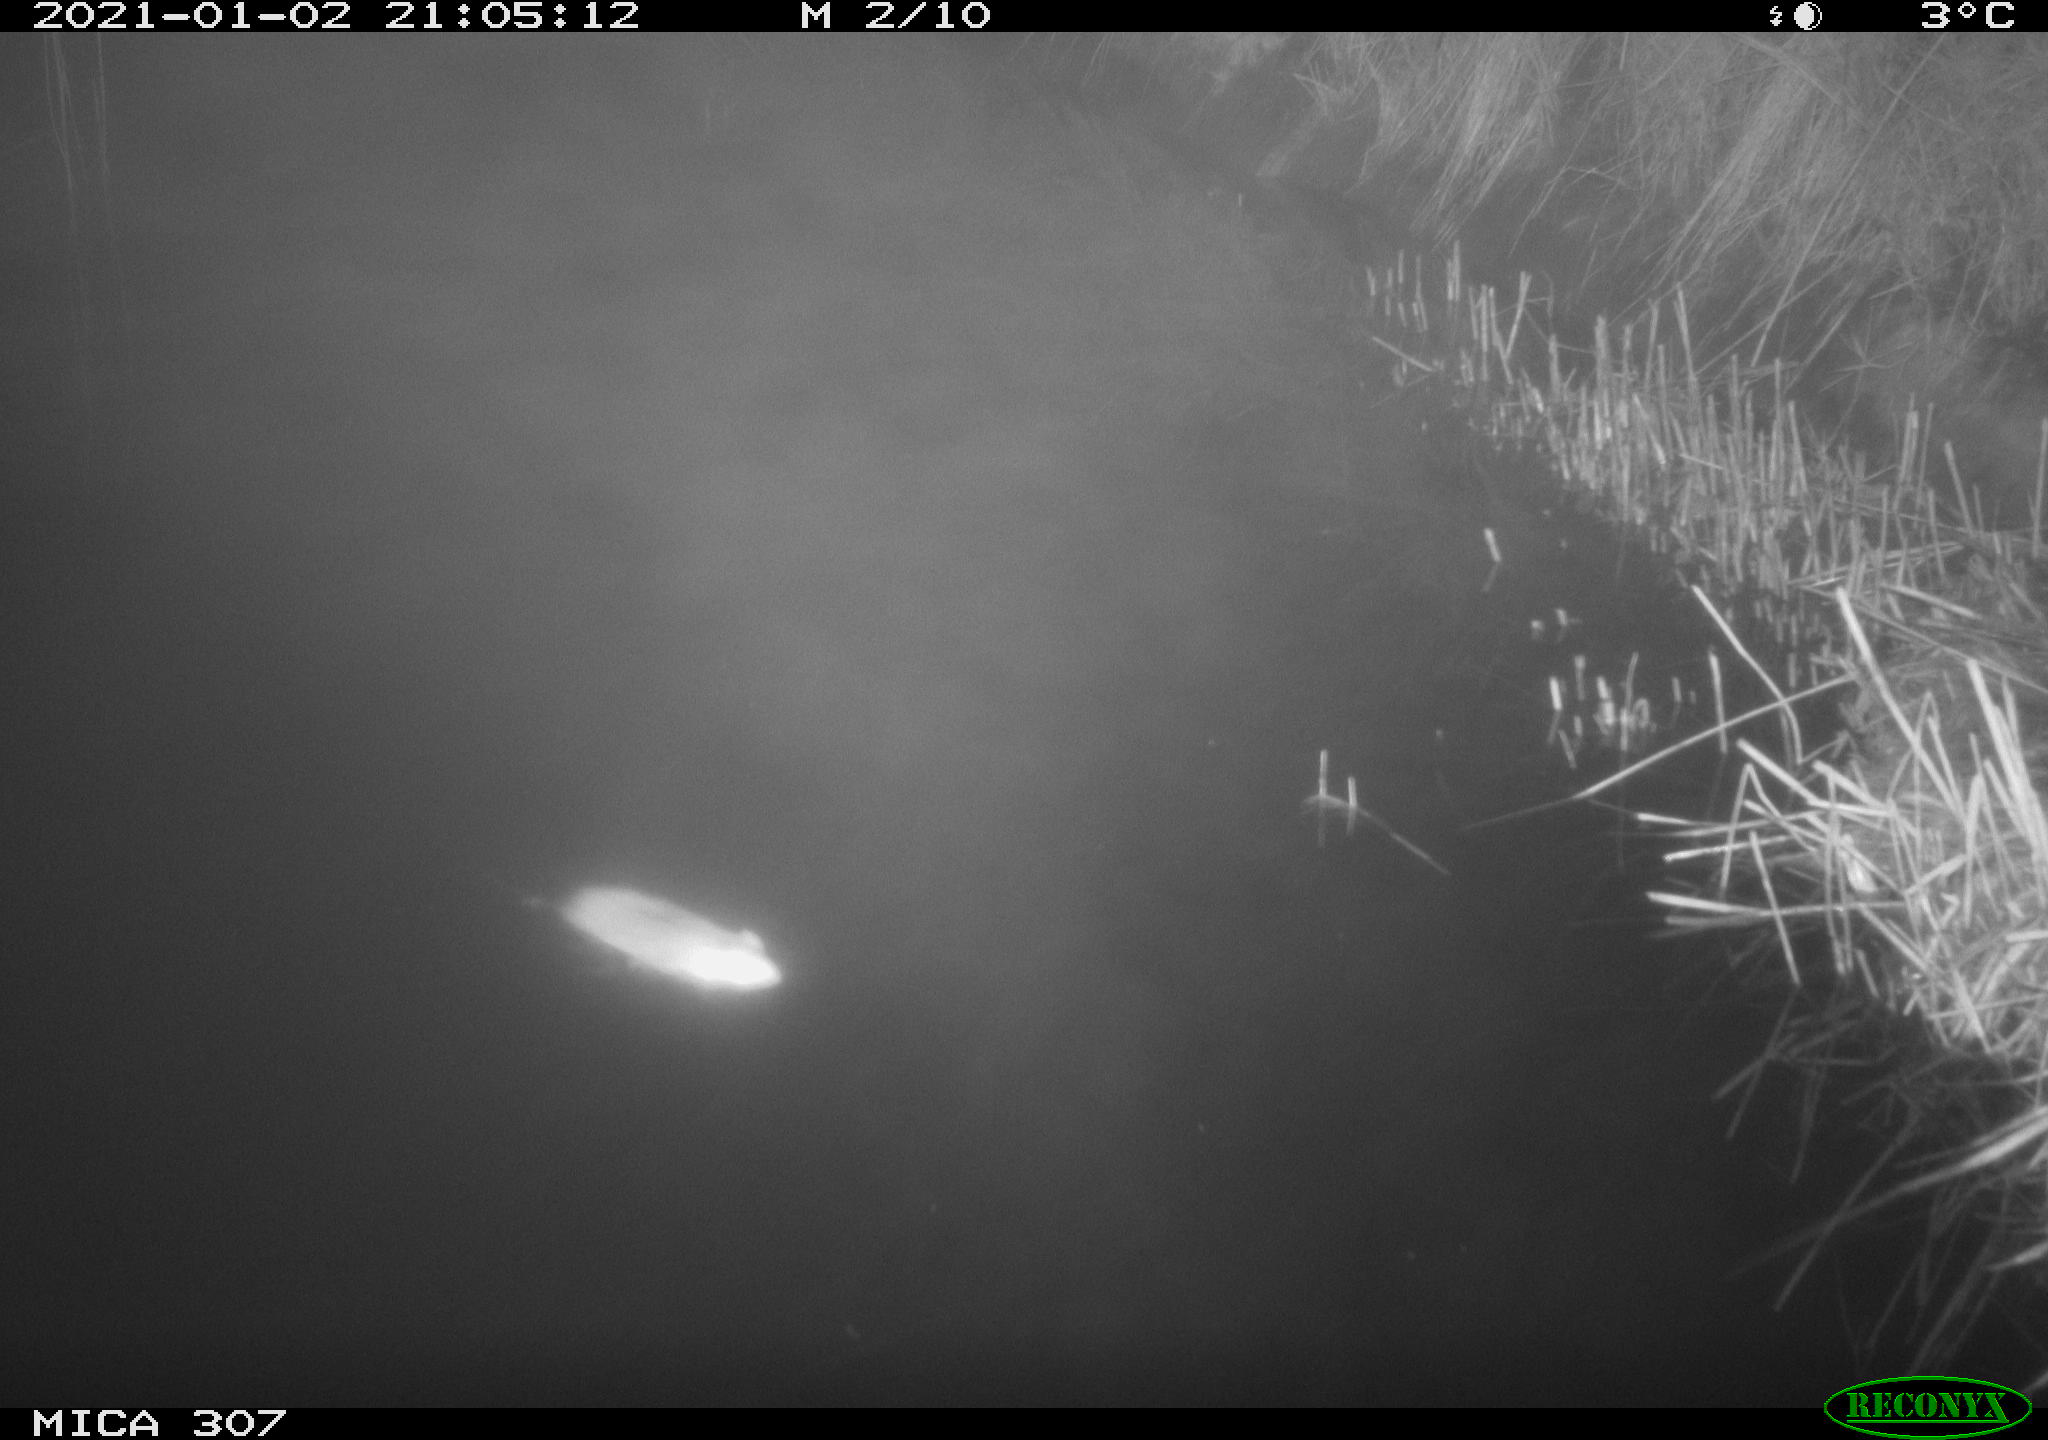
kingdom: Animalia
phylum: Chordata
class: Mammalia
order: Rodentia
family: Muridae
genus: Rattus
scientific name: Rattus norvegicus
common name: Brown rat
